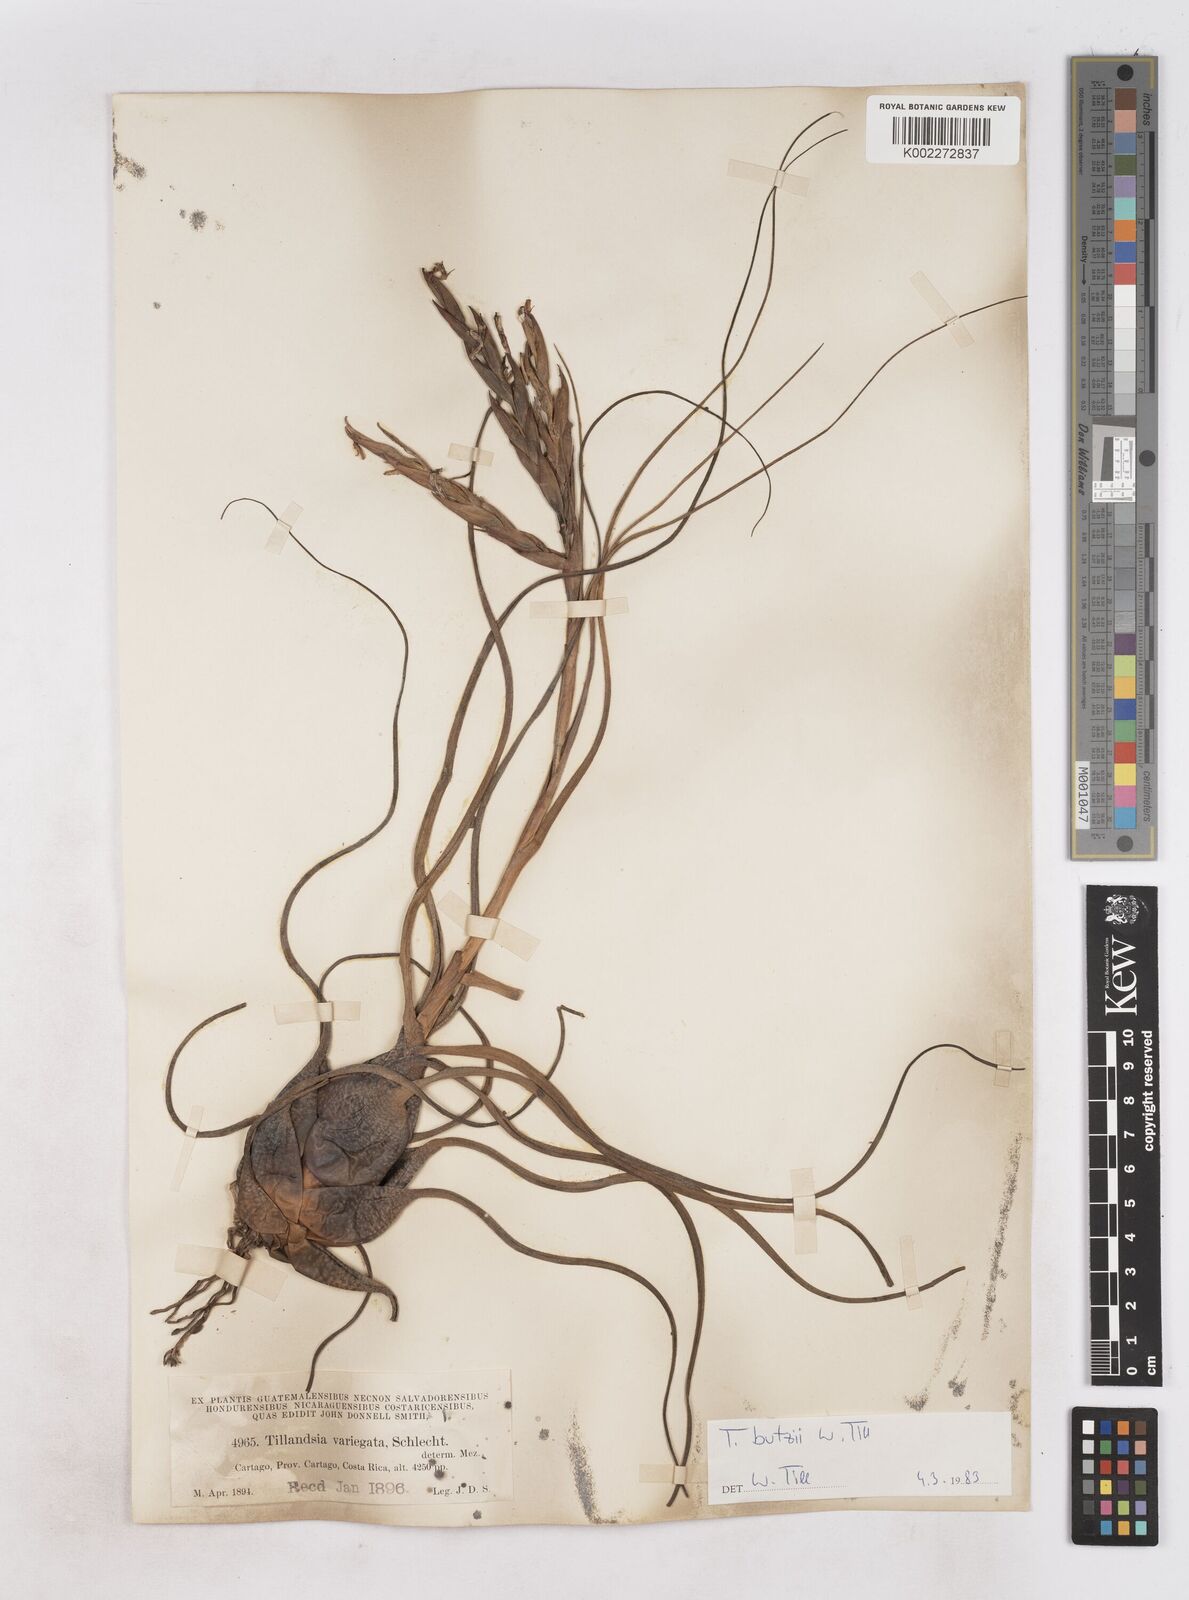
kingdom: Plantae
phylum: Tracheophyta
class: Liliopsida
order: Poales
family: Bromeliaceae
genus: Tillandsia
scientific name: Tillandsia butzii
